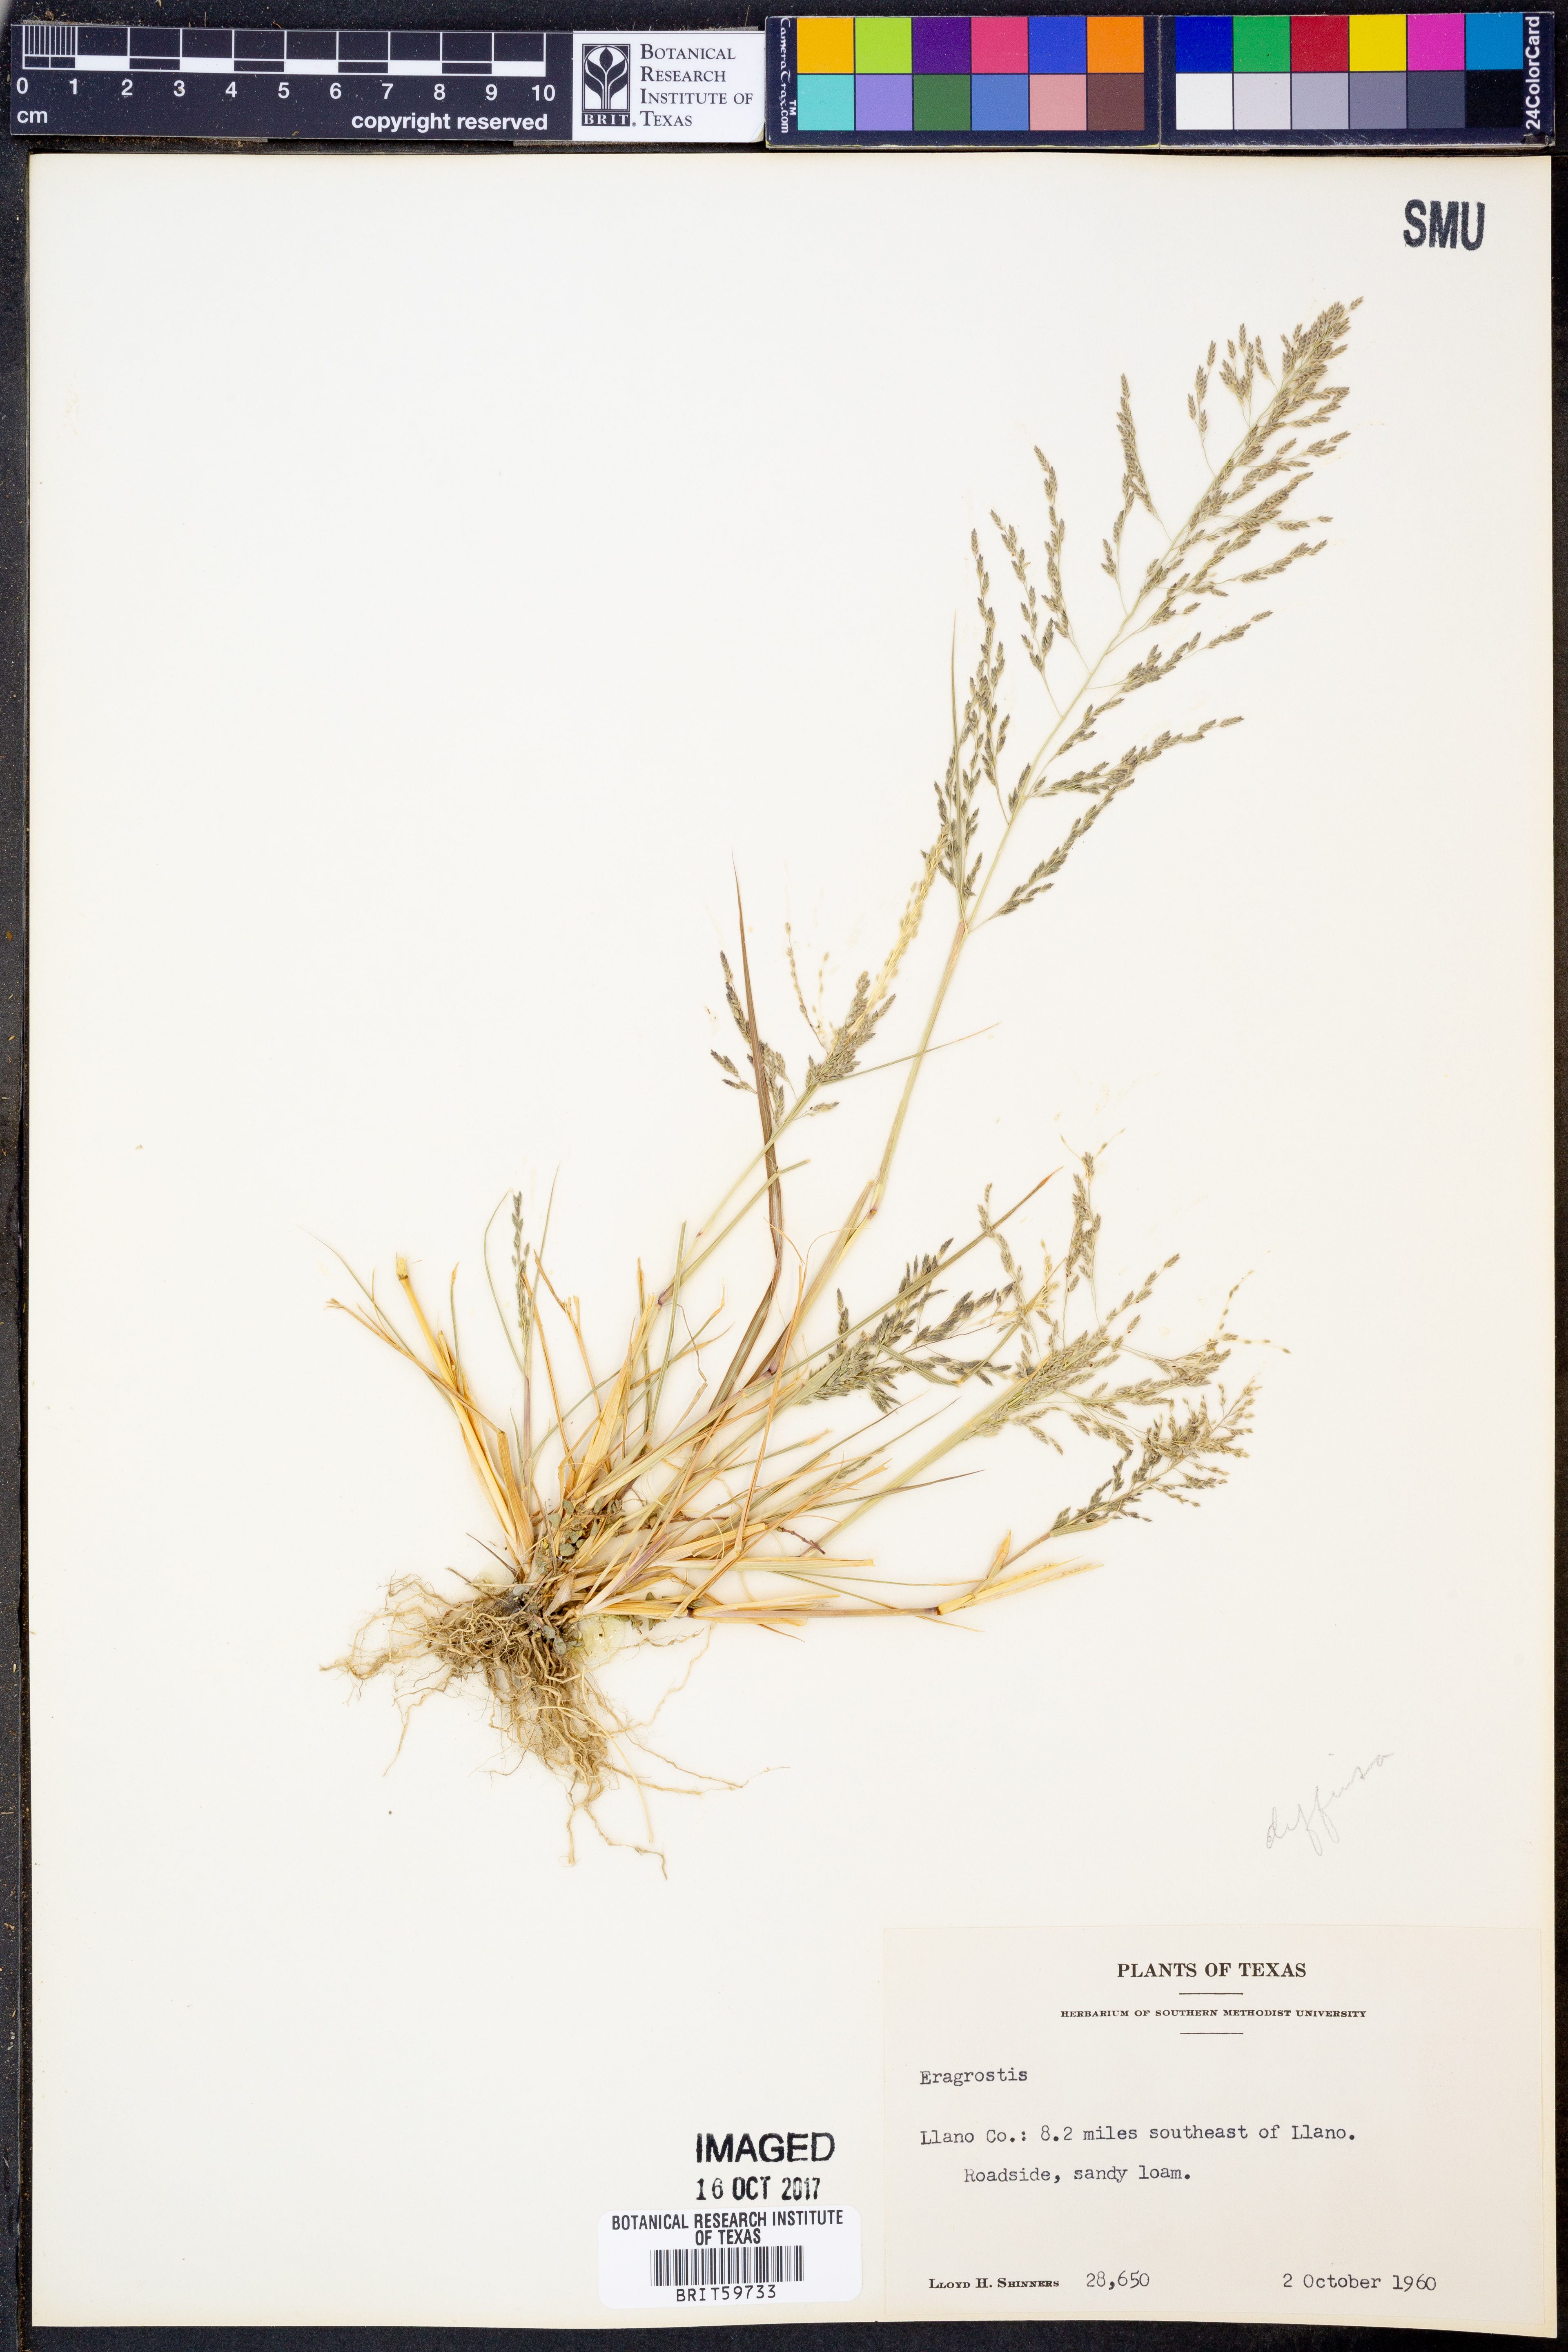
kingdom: Plantae
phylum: Tracheophyta
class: Liliopsida
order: Poales
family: Poaceae
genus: Eragrostis
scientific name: Eragrostis
